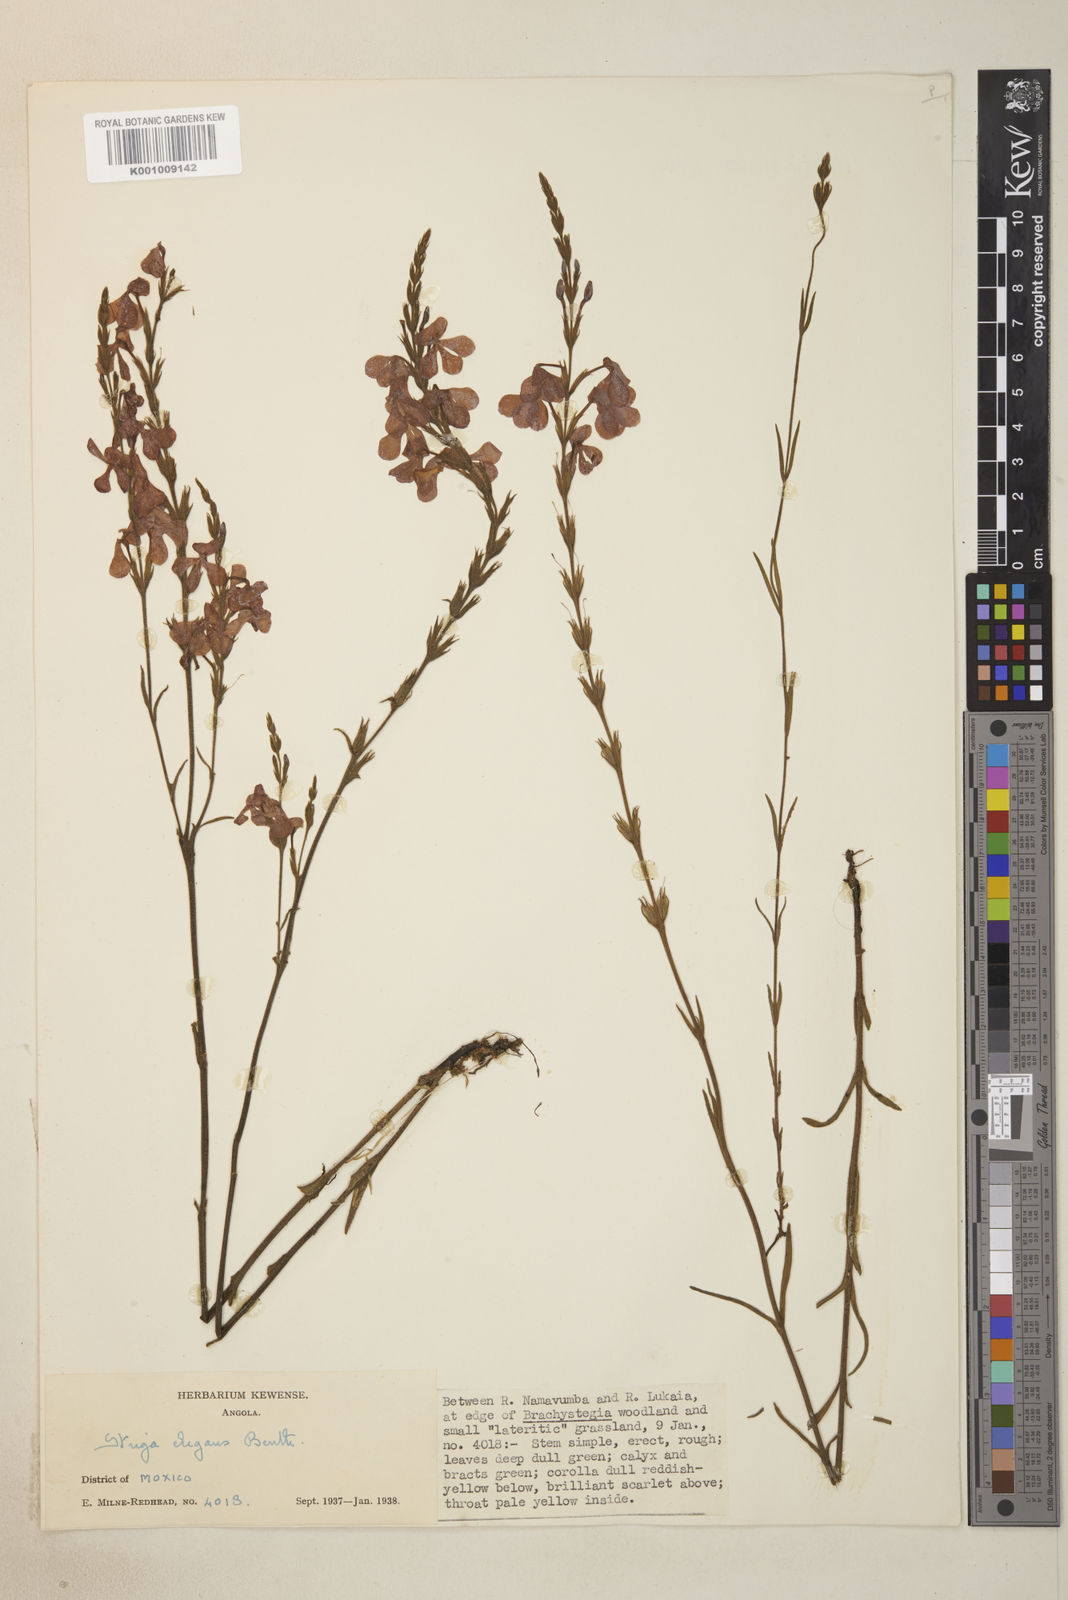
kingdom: Plantae
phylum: Tracheophyta
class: Magnoliopsida
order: Lamiales
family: Orobanchaceae
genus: Striga
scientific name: Striga elegans
